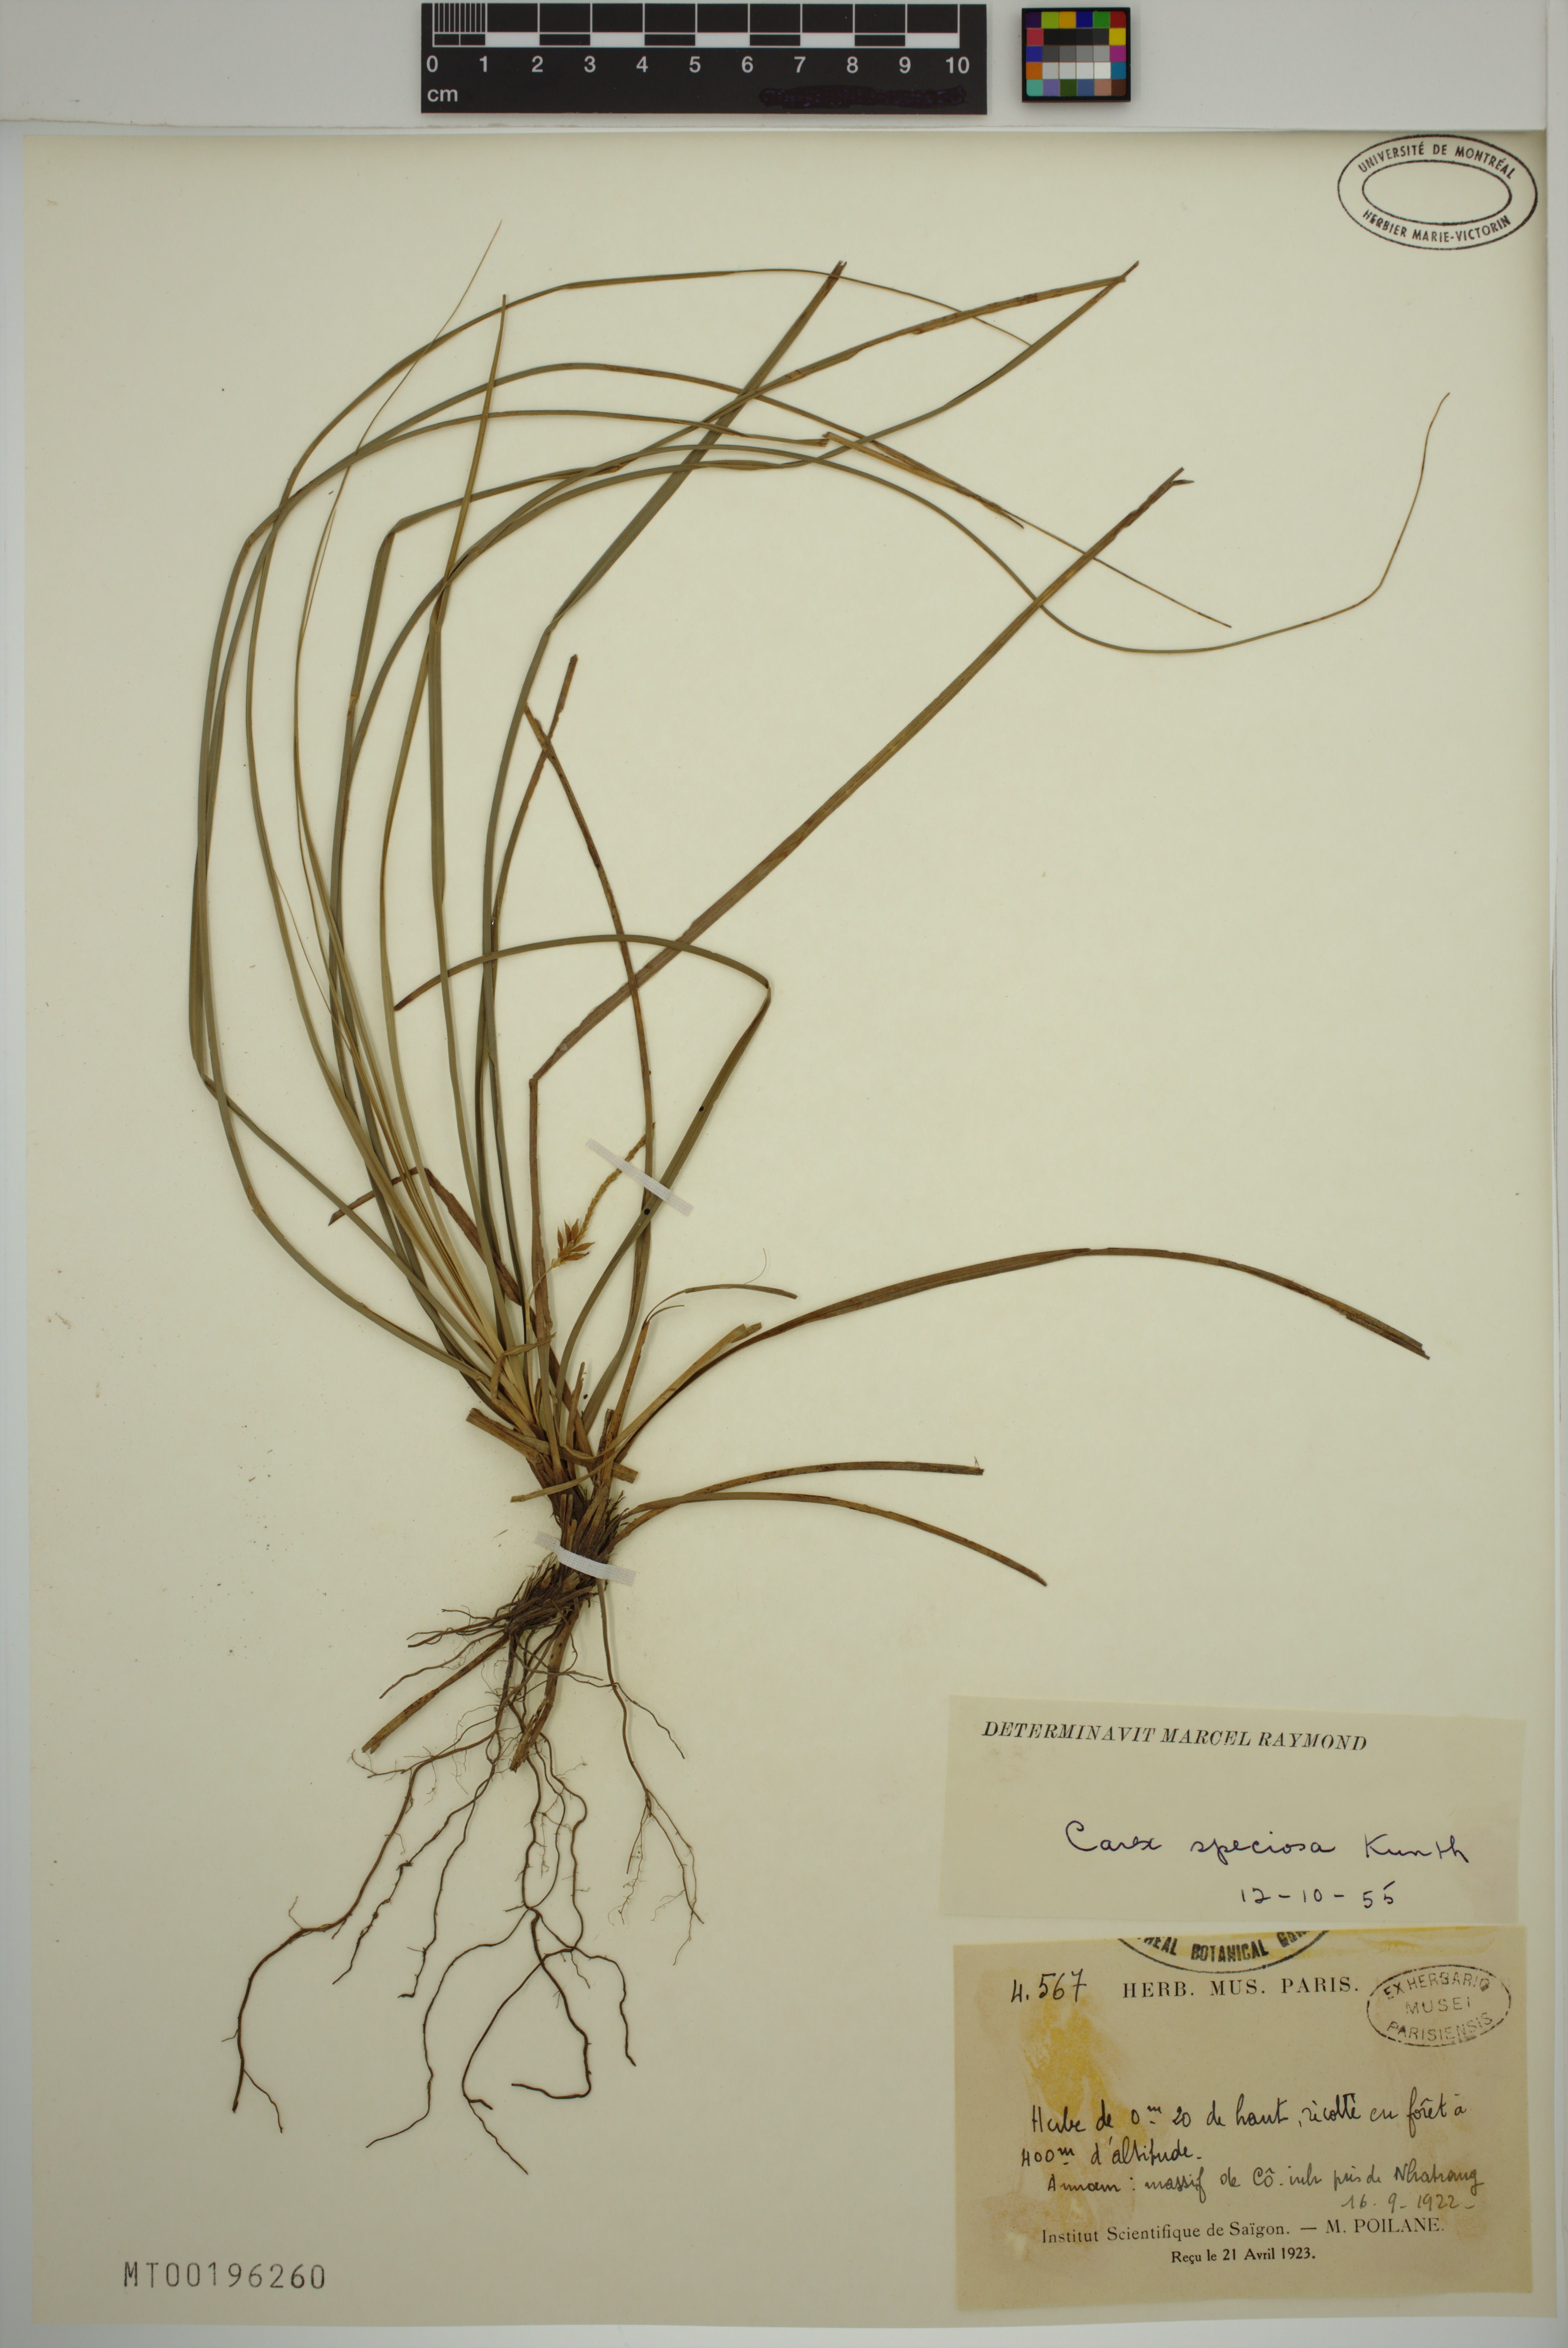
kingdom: Plantae
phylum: Tracheophyta
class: Liliopsida
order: Poales
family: Cyperaceae
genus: Carex
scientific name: Carex speciosa
